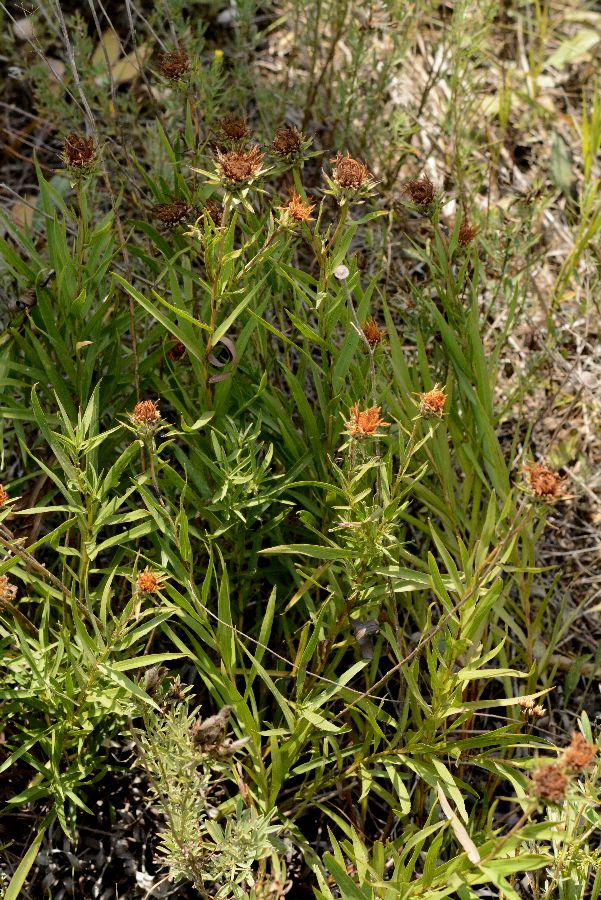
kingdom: Plantae
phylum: Tracheophyta
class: Magnoliopsida
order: Asterales
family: Asteraceae
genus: Pentanema
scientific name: Pentanema ensifolium
